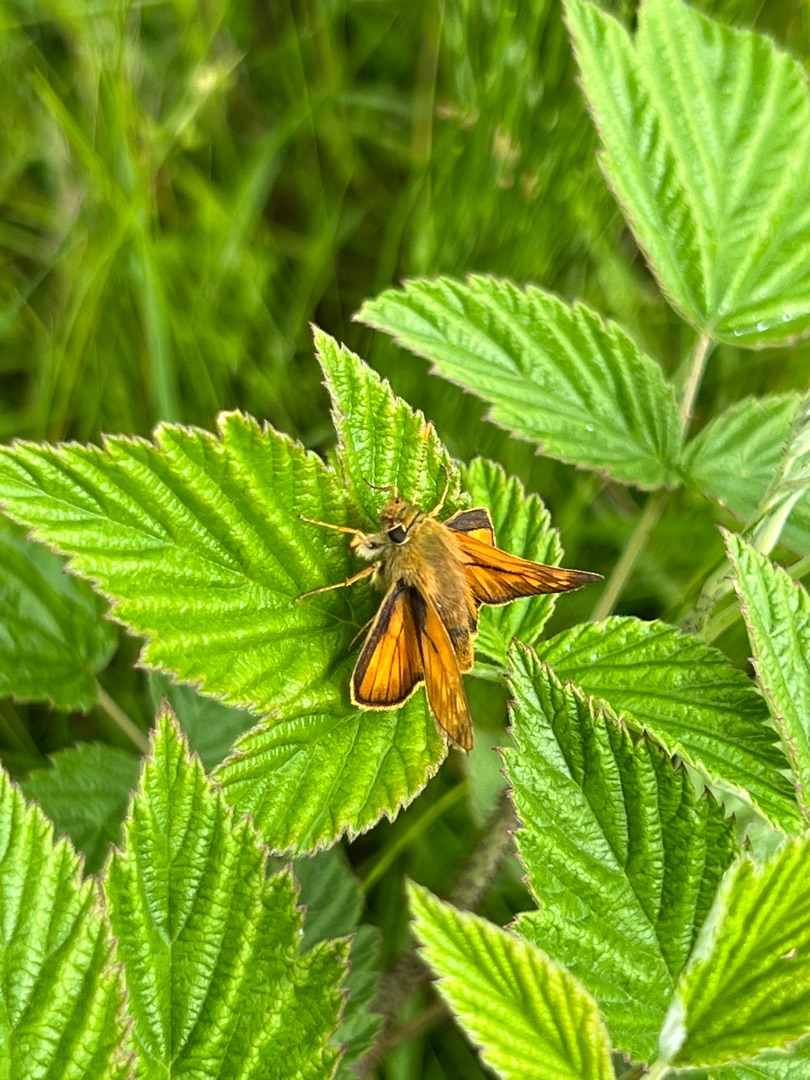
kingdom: Animalia
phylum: Arthropoda
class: Insecta
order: Lepidoptera
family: Hesperiidae
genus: Ochlodes
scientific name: Ochlodes venata
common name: Stor bredpande
